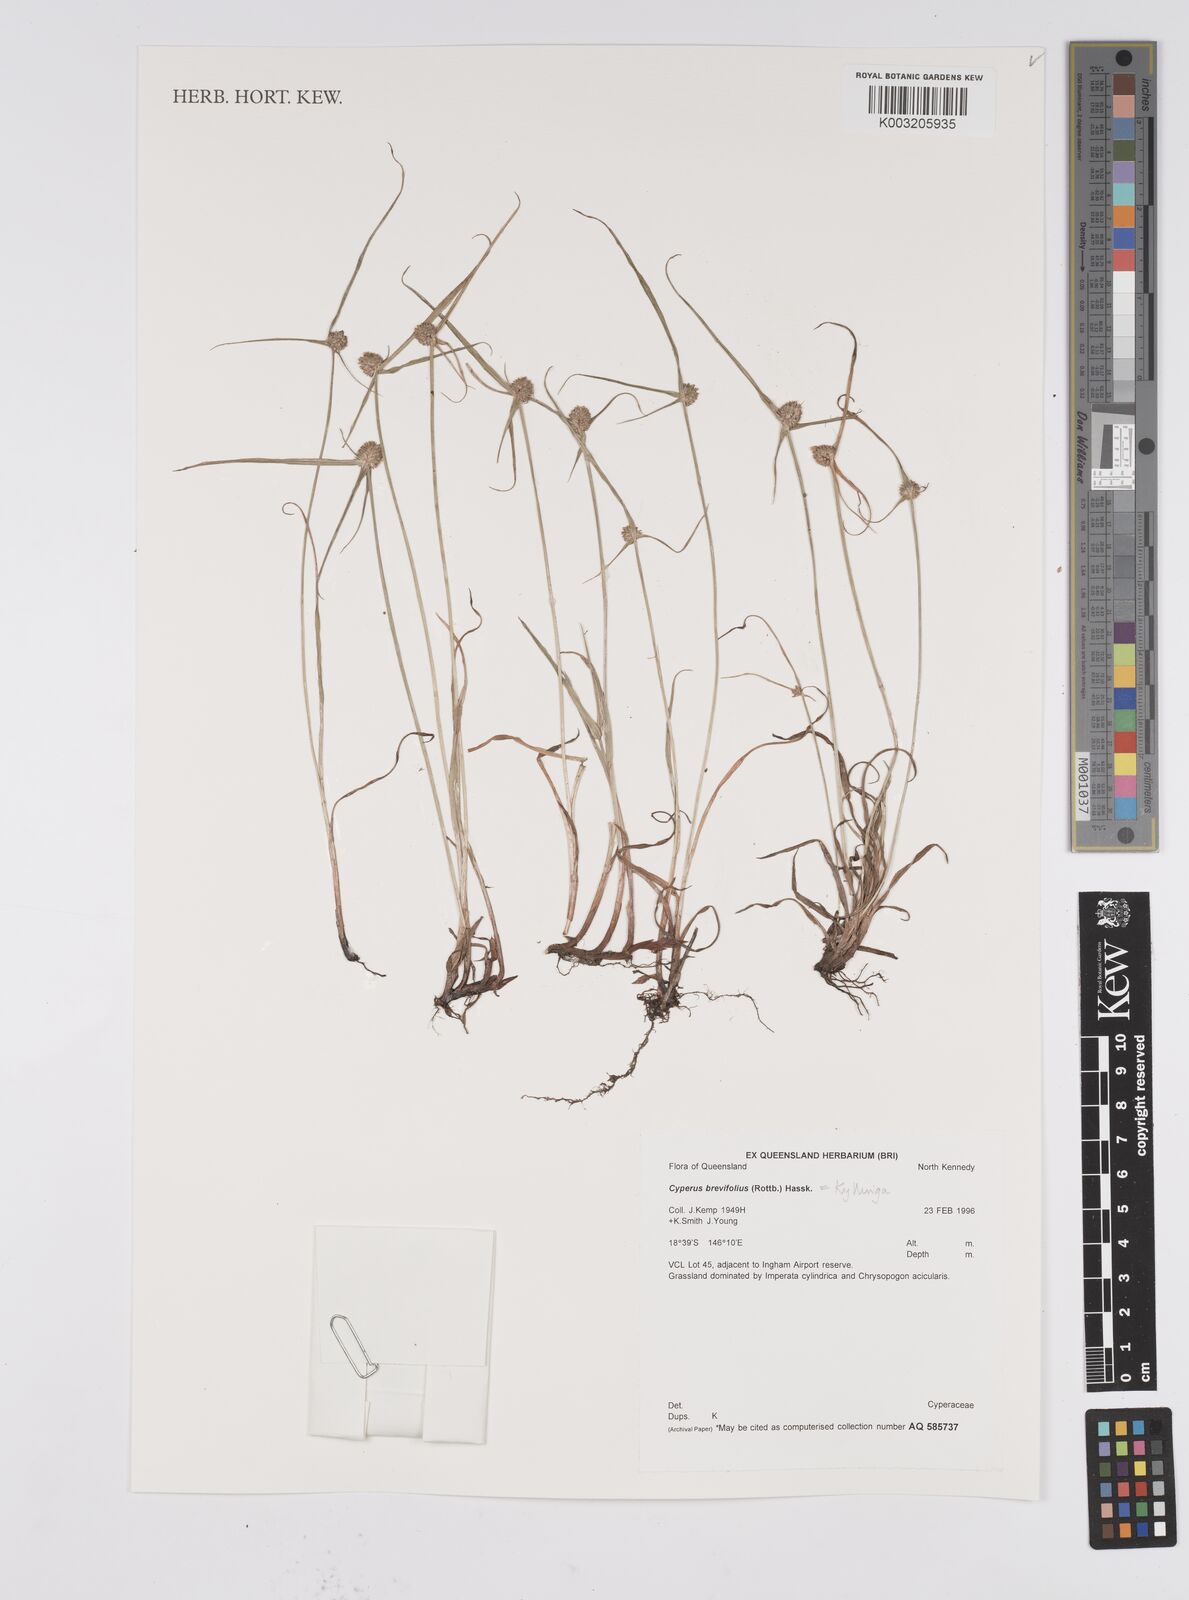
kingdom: Plantae
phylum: Tracheophyta
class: Liliopsida
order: Poales
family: Cyperaceae
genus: Cyperus
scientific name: Cyperus brevifolius
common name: Globe kyllinga
